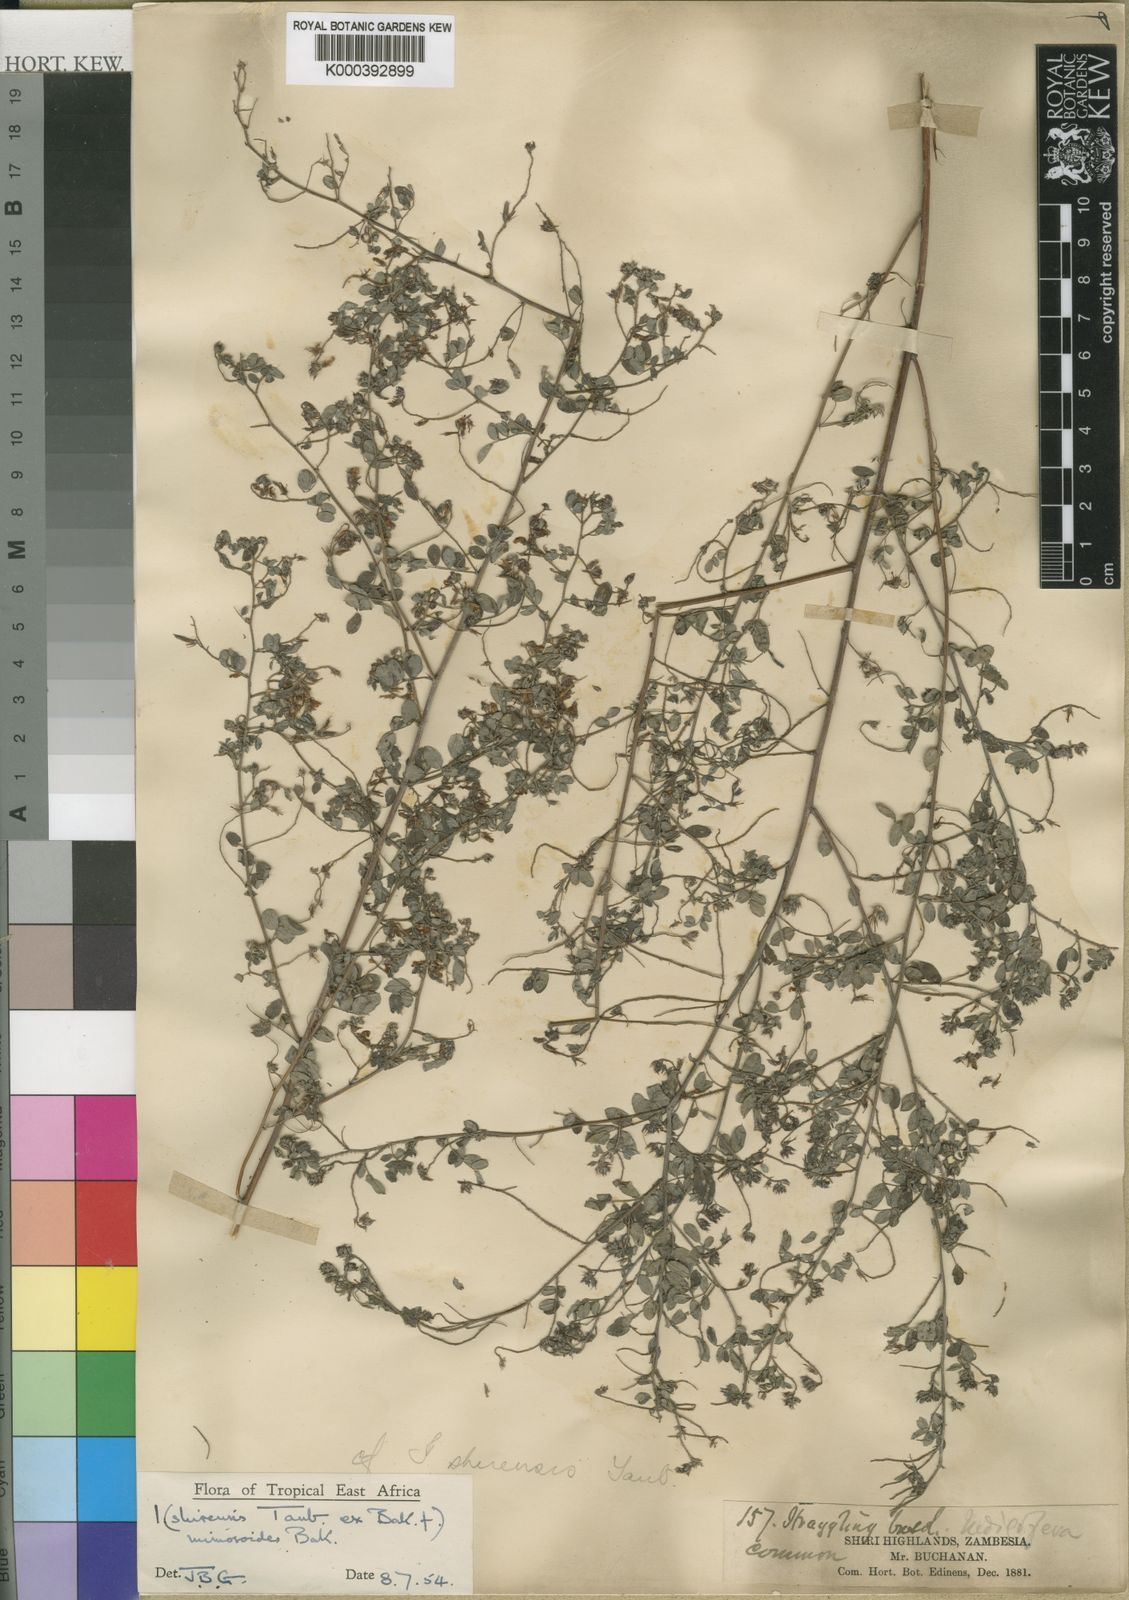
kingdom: Plantae
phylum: Tracheophyta
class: Magnoliopsida
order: Fabales
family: Fabaceae
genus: Indigofera
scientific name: Indigofera mimosoides
